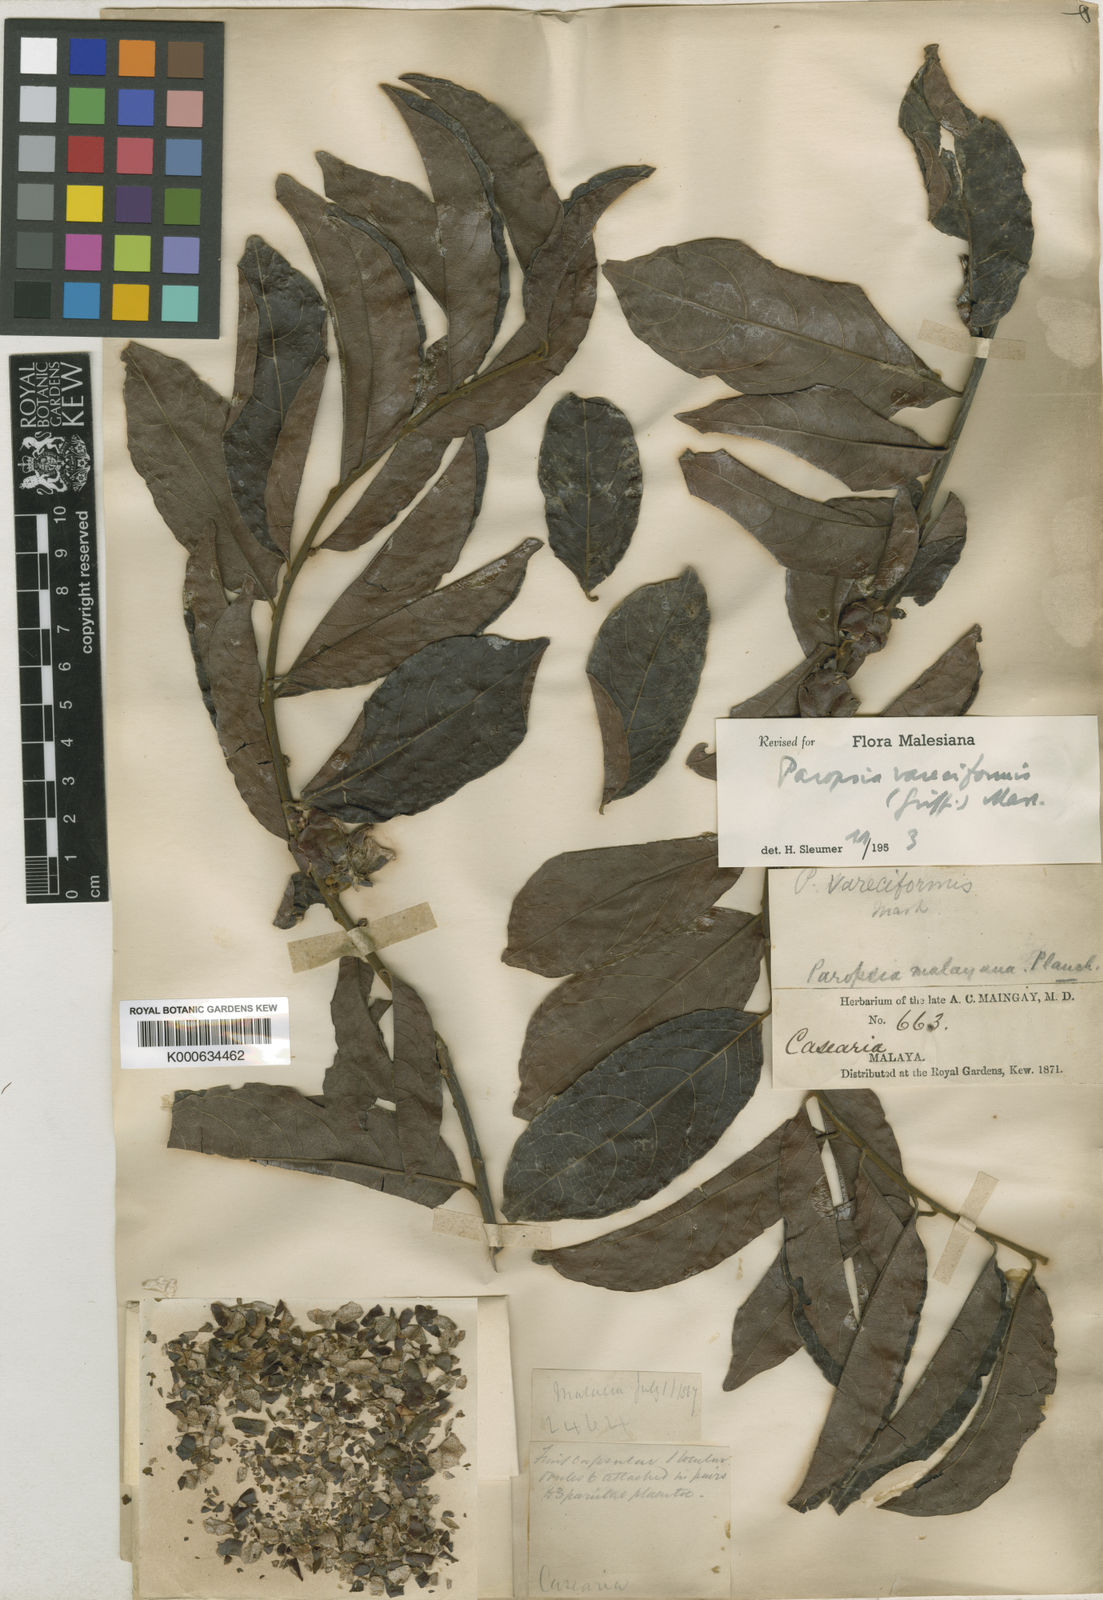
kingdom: Plantae
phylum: Tracheophyta
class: Magnoliopsida
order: Malpighiales
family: Passifloraceae
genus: Paropsia
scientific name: Paropsia vareciformis
